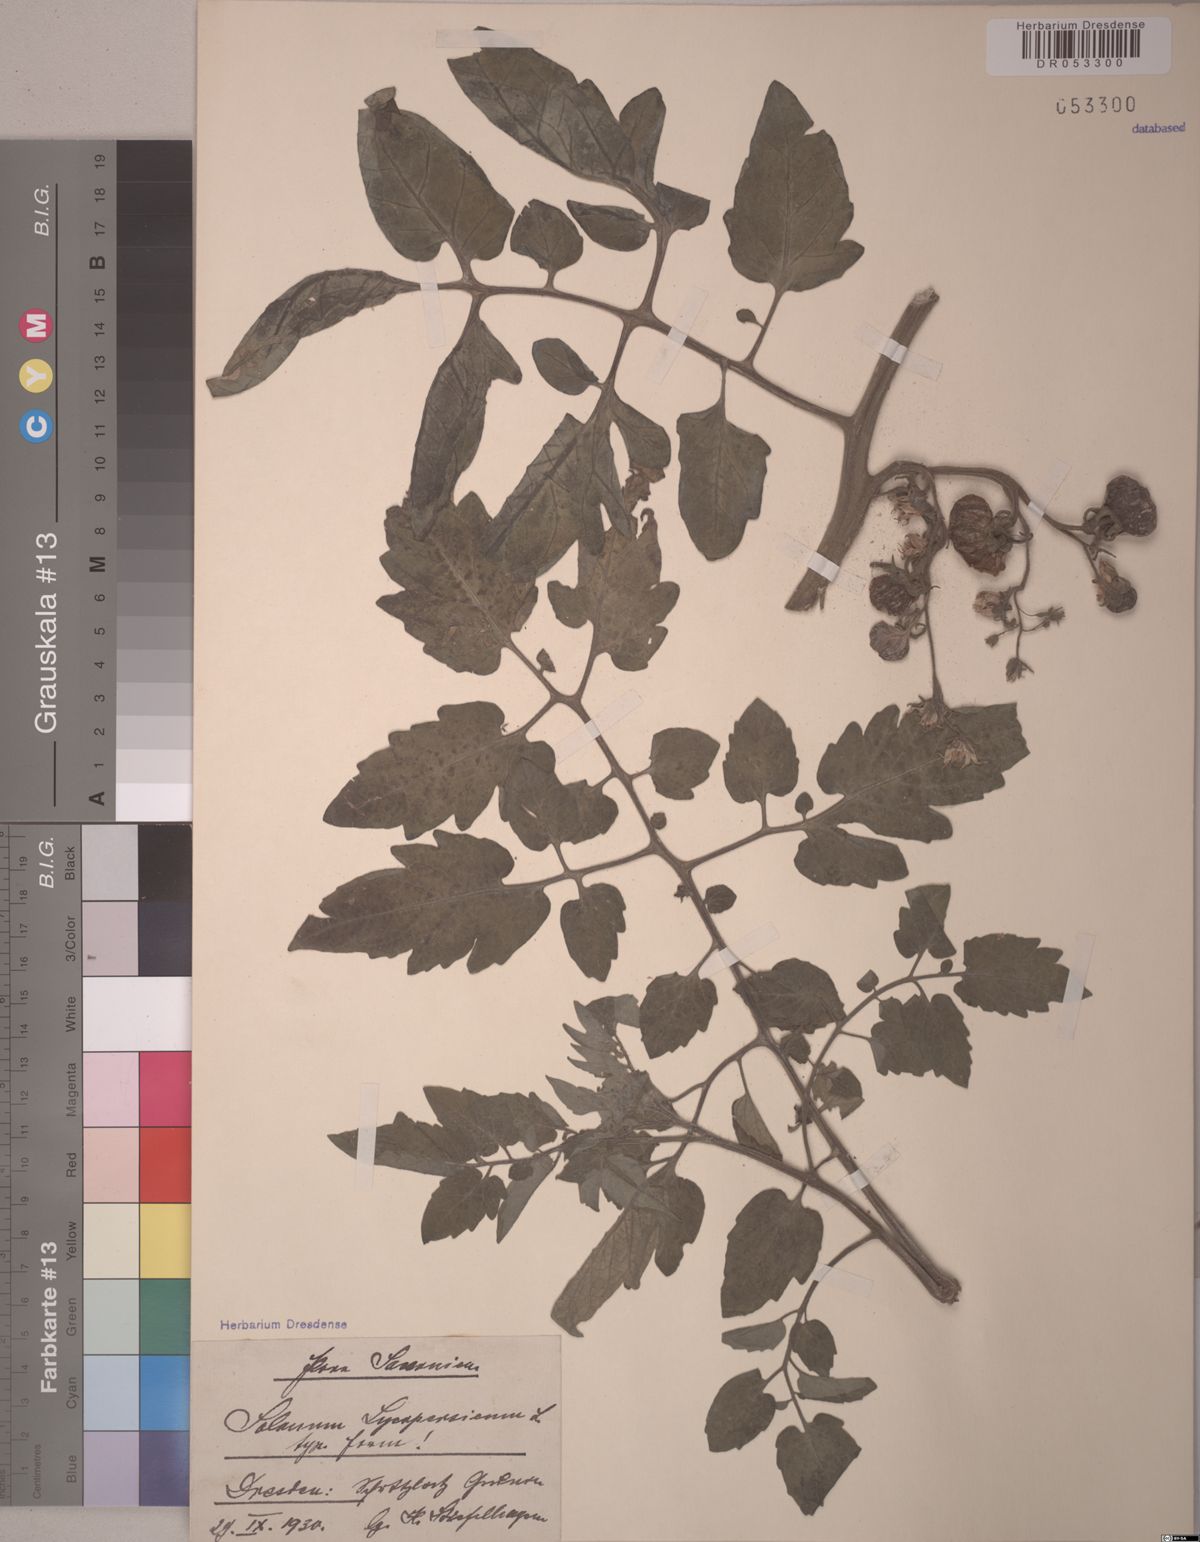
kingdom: Plantae
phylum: Tracheophyta
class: Magnoliopsida
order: Solanales
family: Solanaceae
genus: Solanum
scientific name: Solanum lycopersicum
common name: Garden tomato
